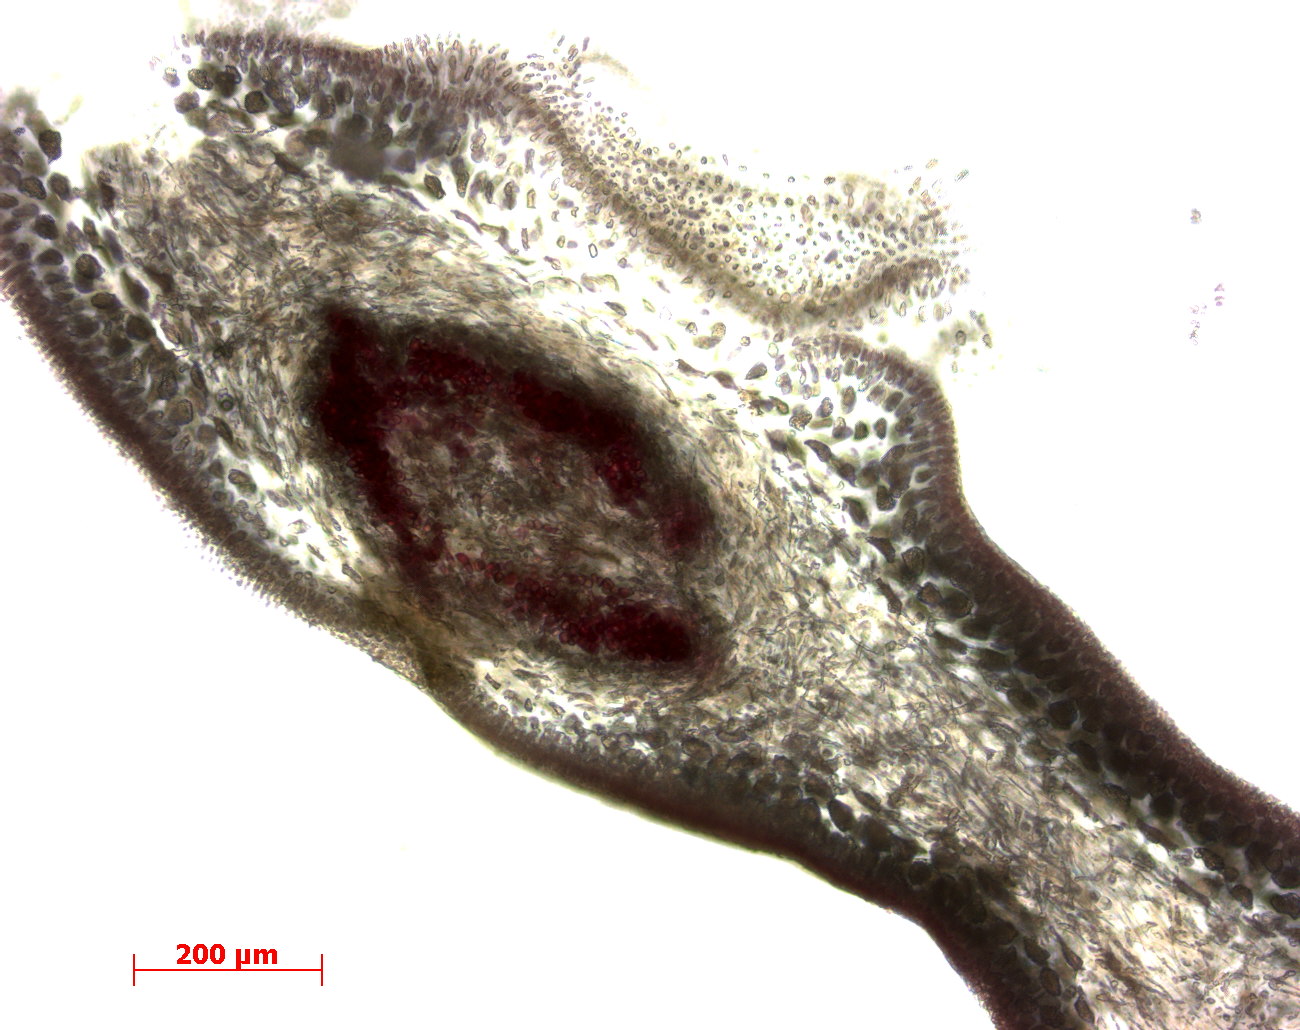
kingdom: Plantae
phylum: Rhodophyta
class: Florideophyceae
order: Gigartinales
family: Kallymeniaceae
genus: Psaromenia
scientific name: Psaromenia berggrenii
